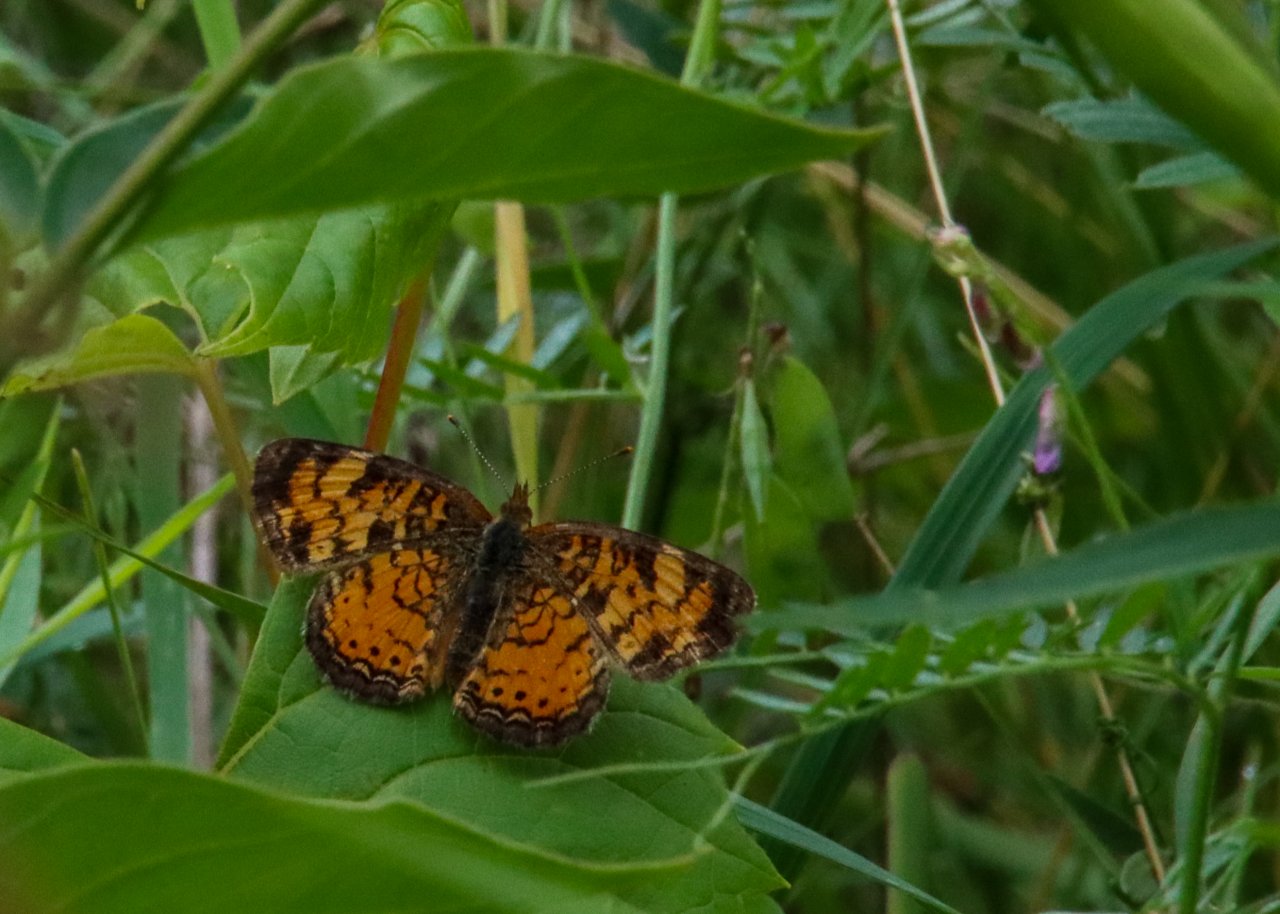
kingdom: Animalia
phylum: Arthropoda
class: Insecta
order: Lepidoptera
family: Nymphalidae
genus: Phyciodes
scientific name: Phyciodes tharos
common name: Northern Crescent
